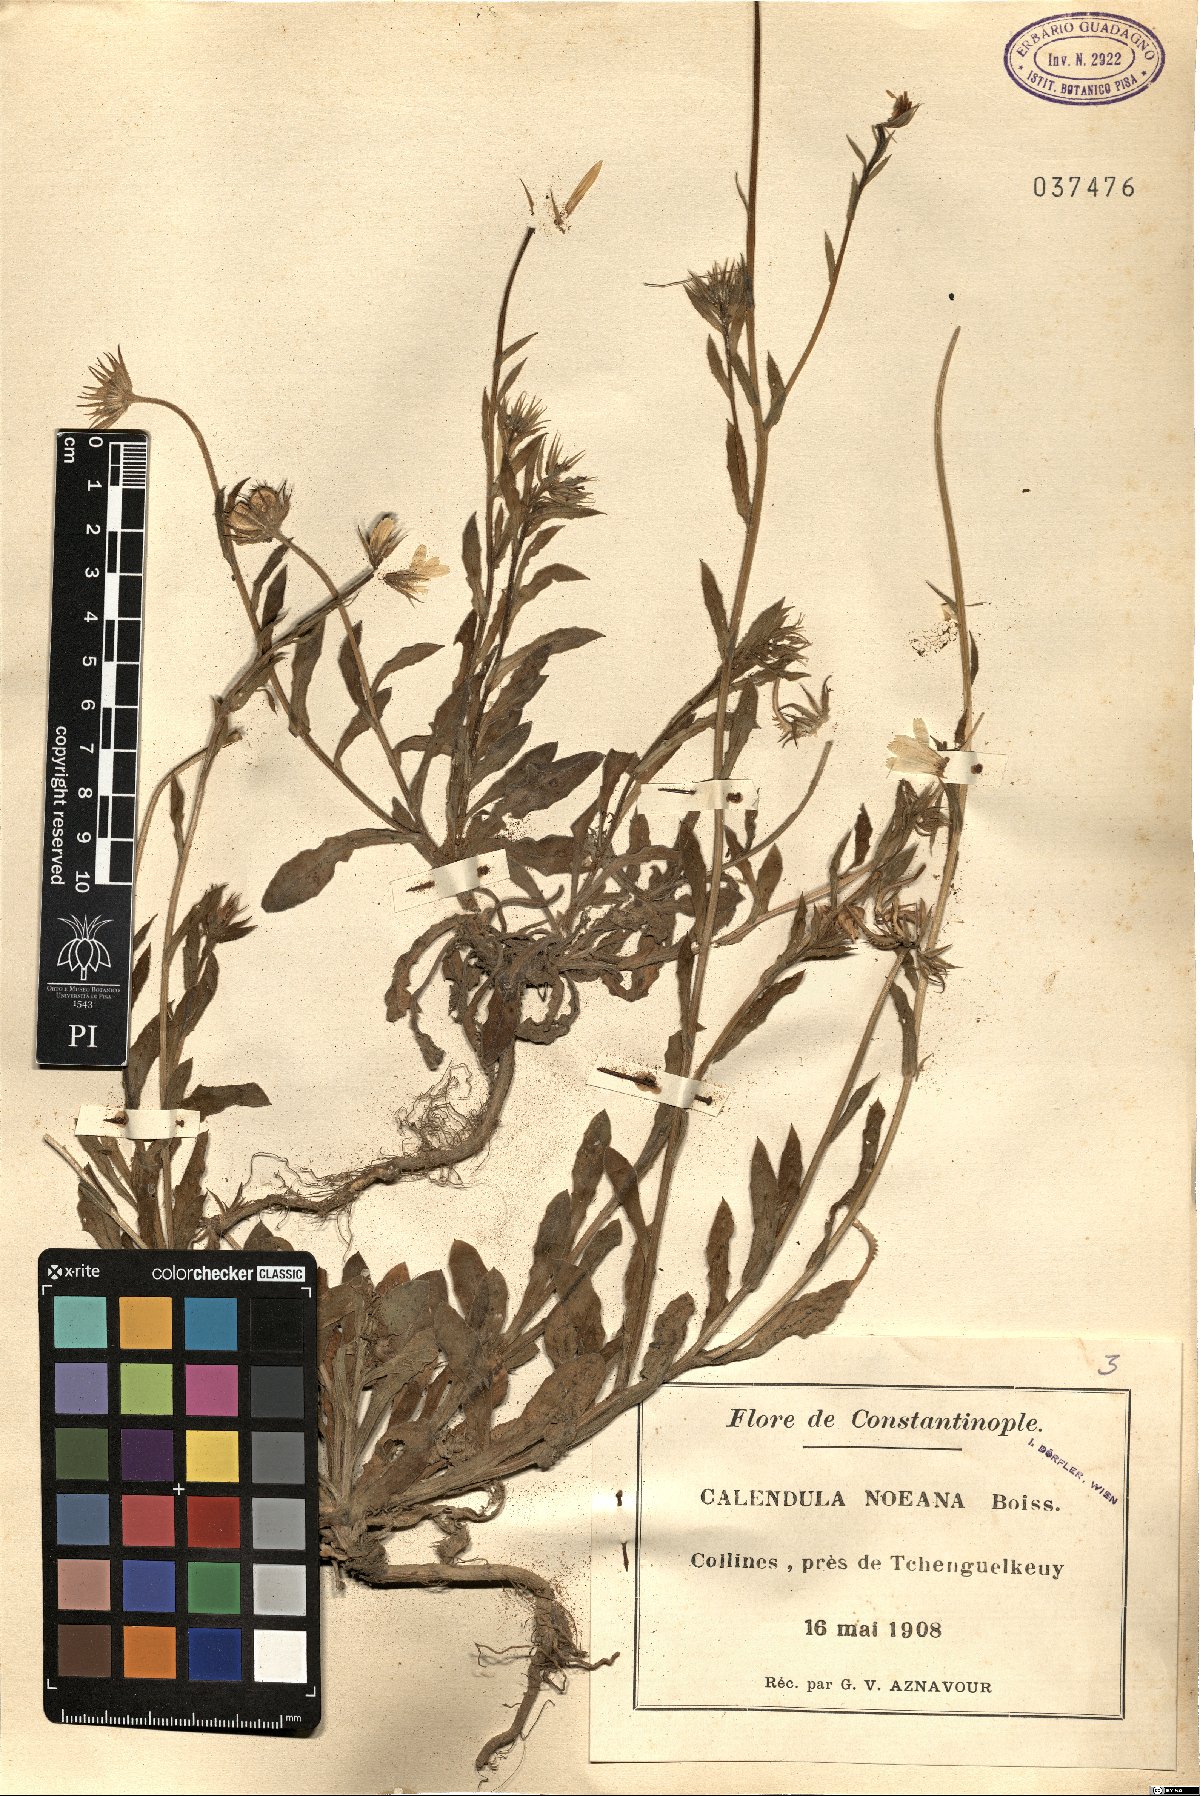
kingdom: Plantae
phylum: Tracheophyta
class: Magnoliopsida
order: Asterales
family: Asteraceae
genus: Calendula
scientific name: Calendula suffruticosa
